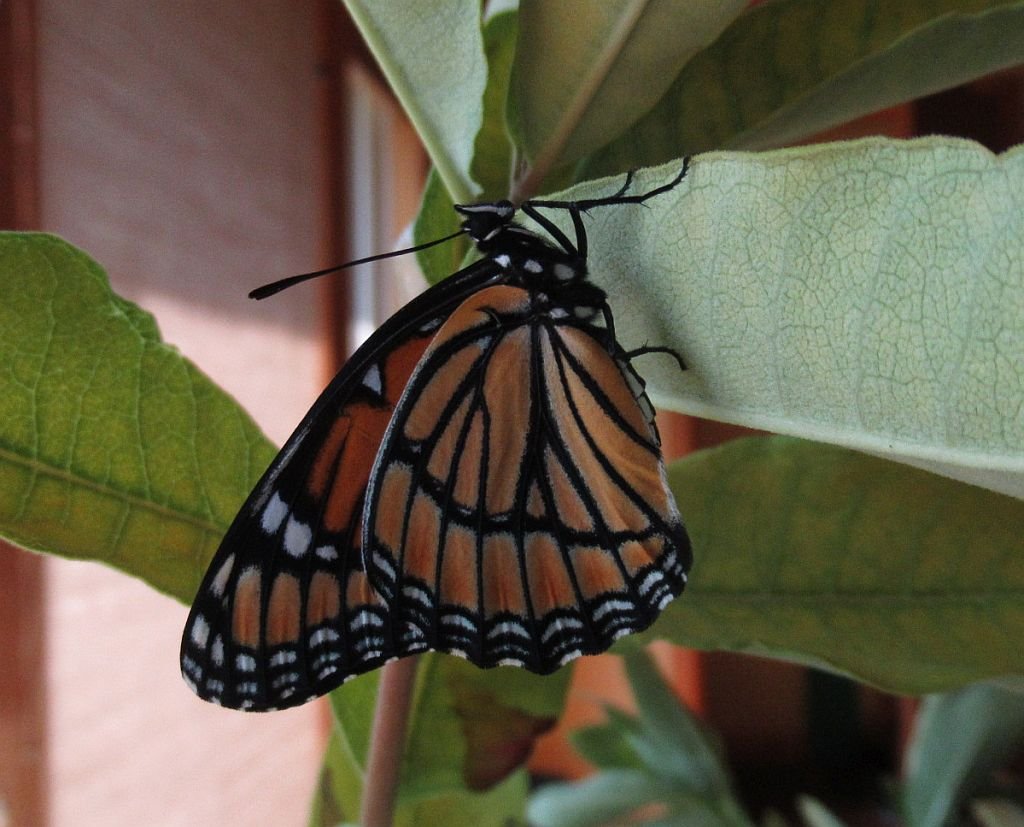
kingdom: Animalia
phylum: Arthropoda
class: Insecta
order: Lepidoptera
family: Nymphalidae
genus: Limenitis
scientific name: Limenitis archippus
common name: Viceroy
